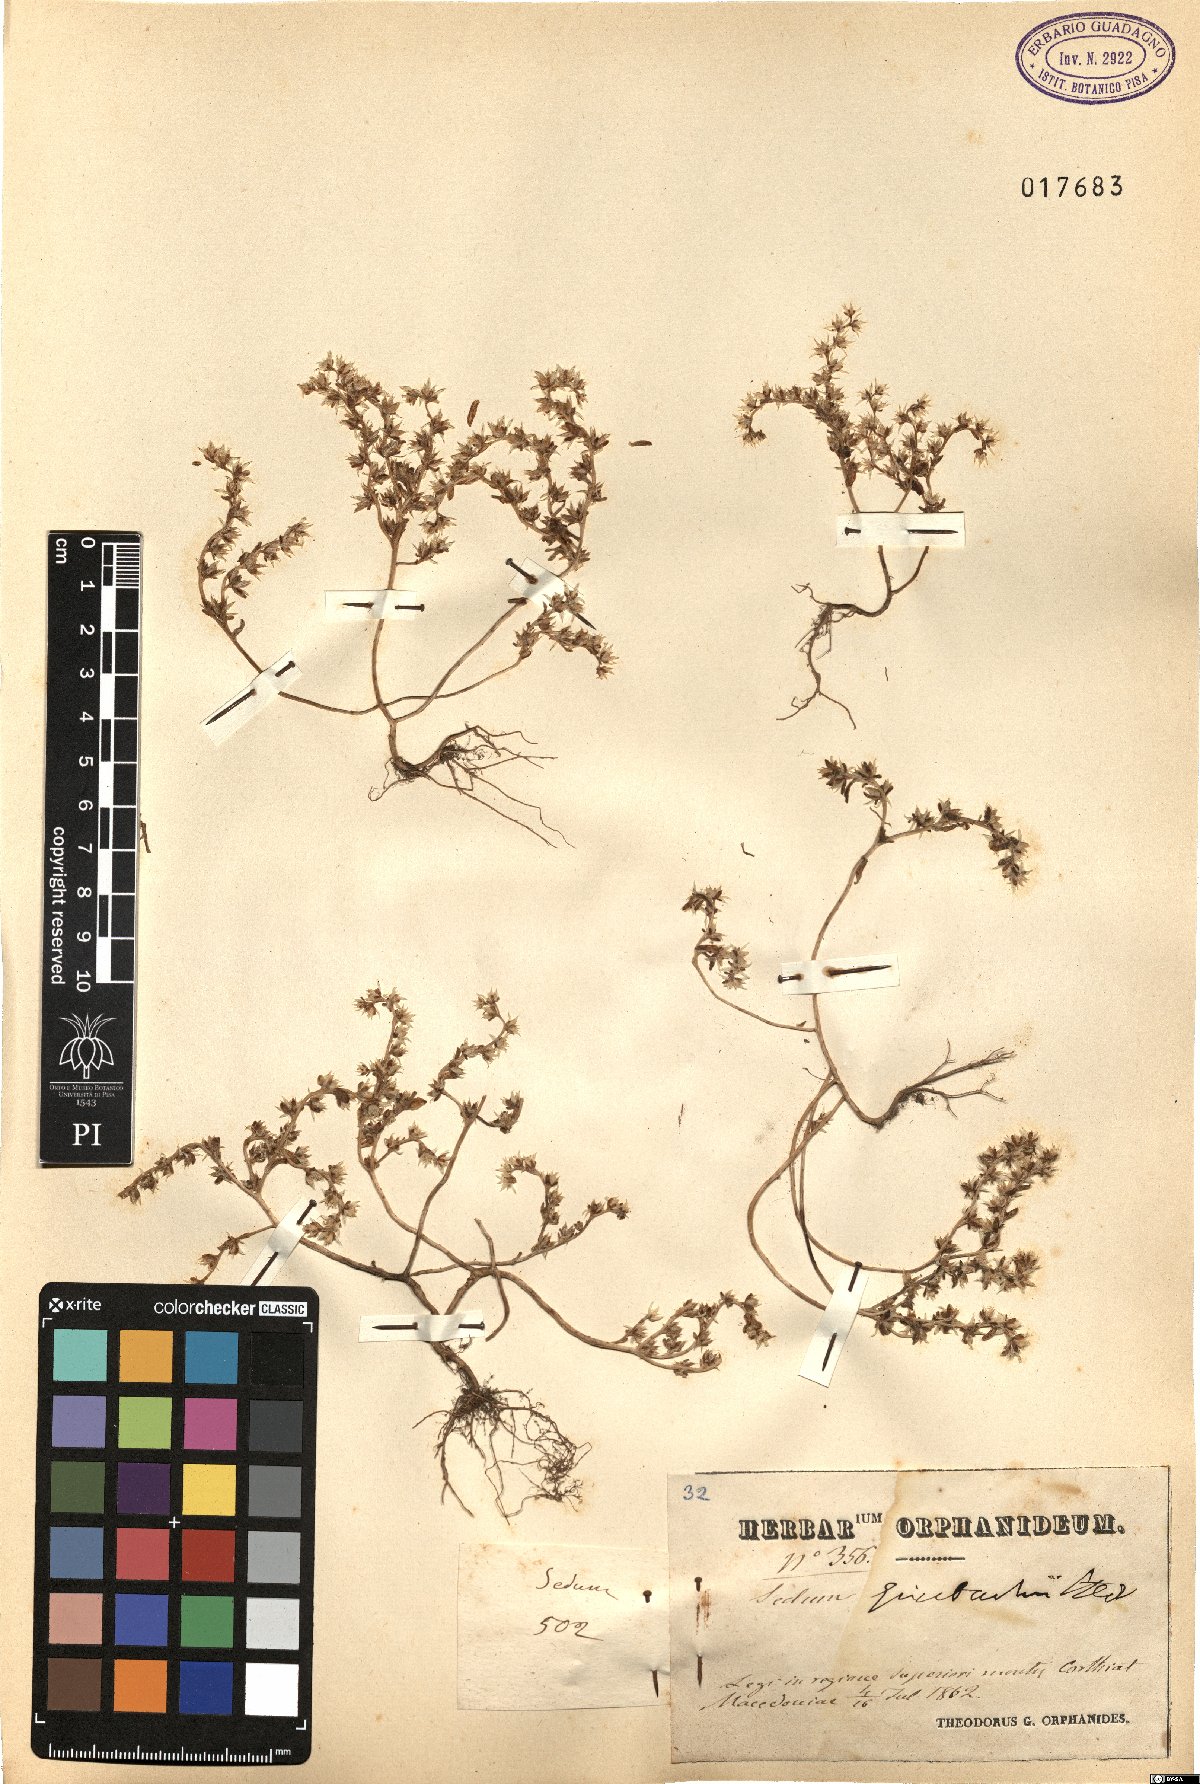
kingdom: Plantae
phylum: Tracheophyta
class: Magnoliopsida
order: Saxifragales
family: Crassulaceae
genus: Sedum
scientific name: Sedum grisebachii
